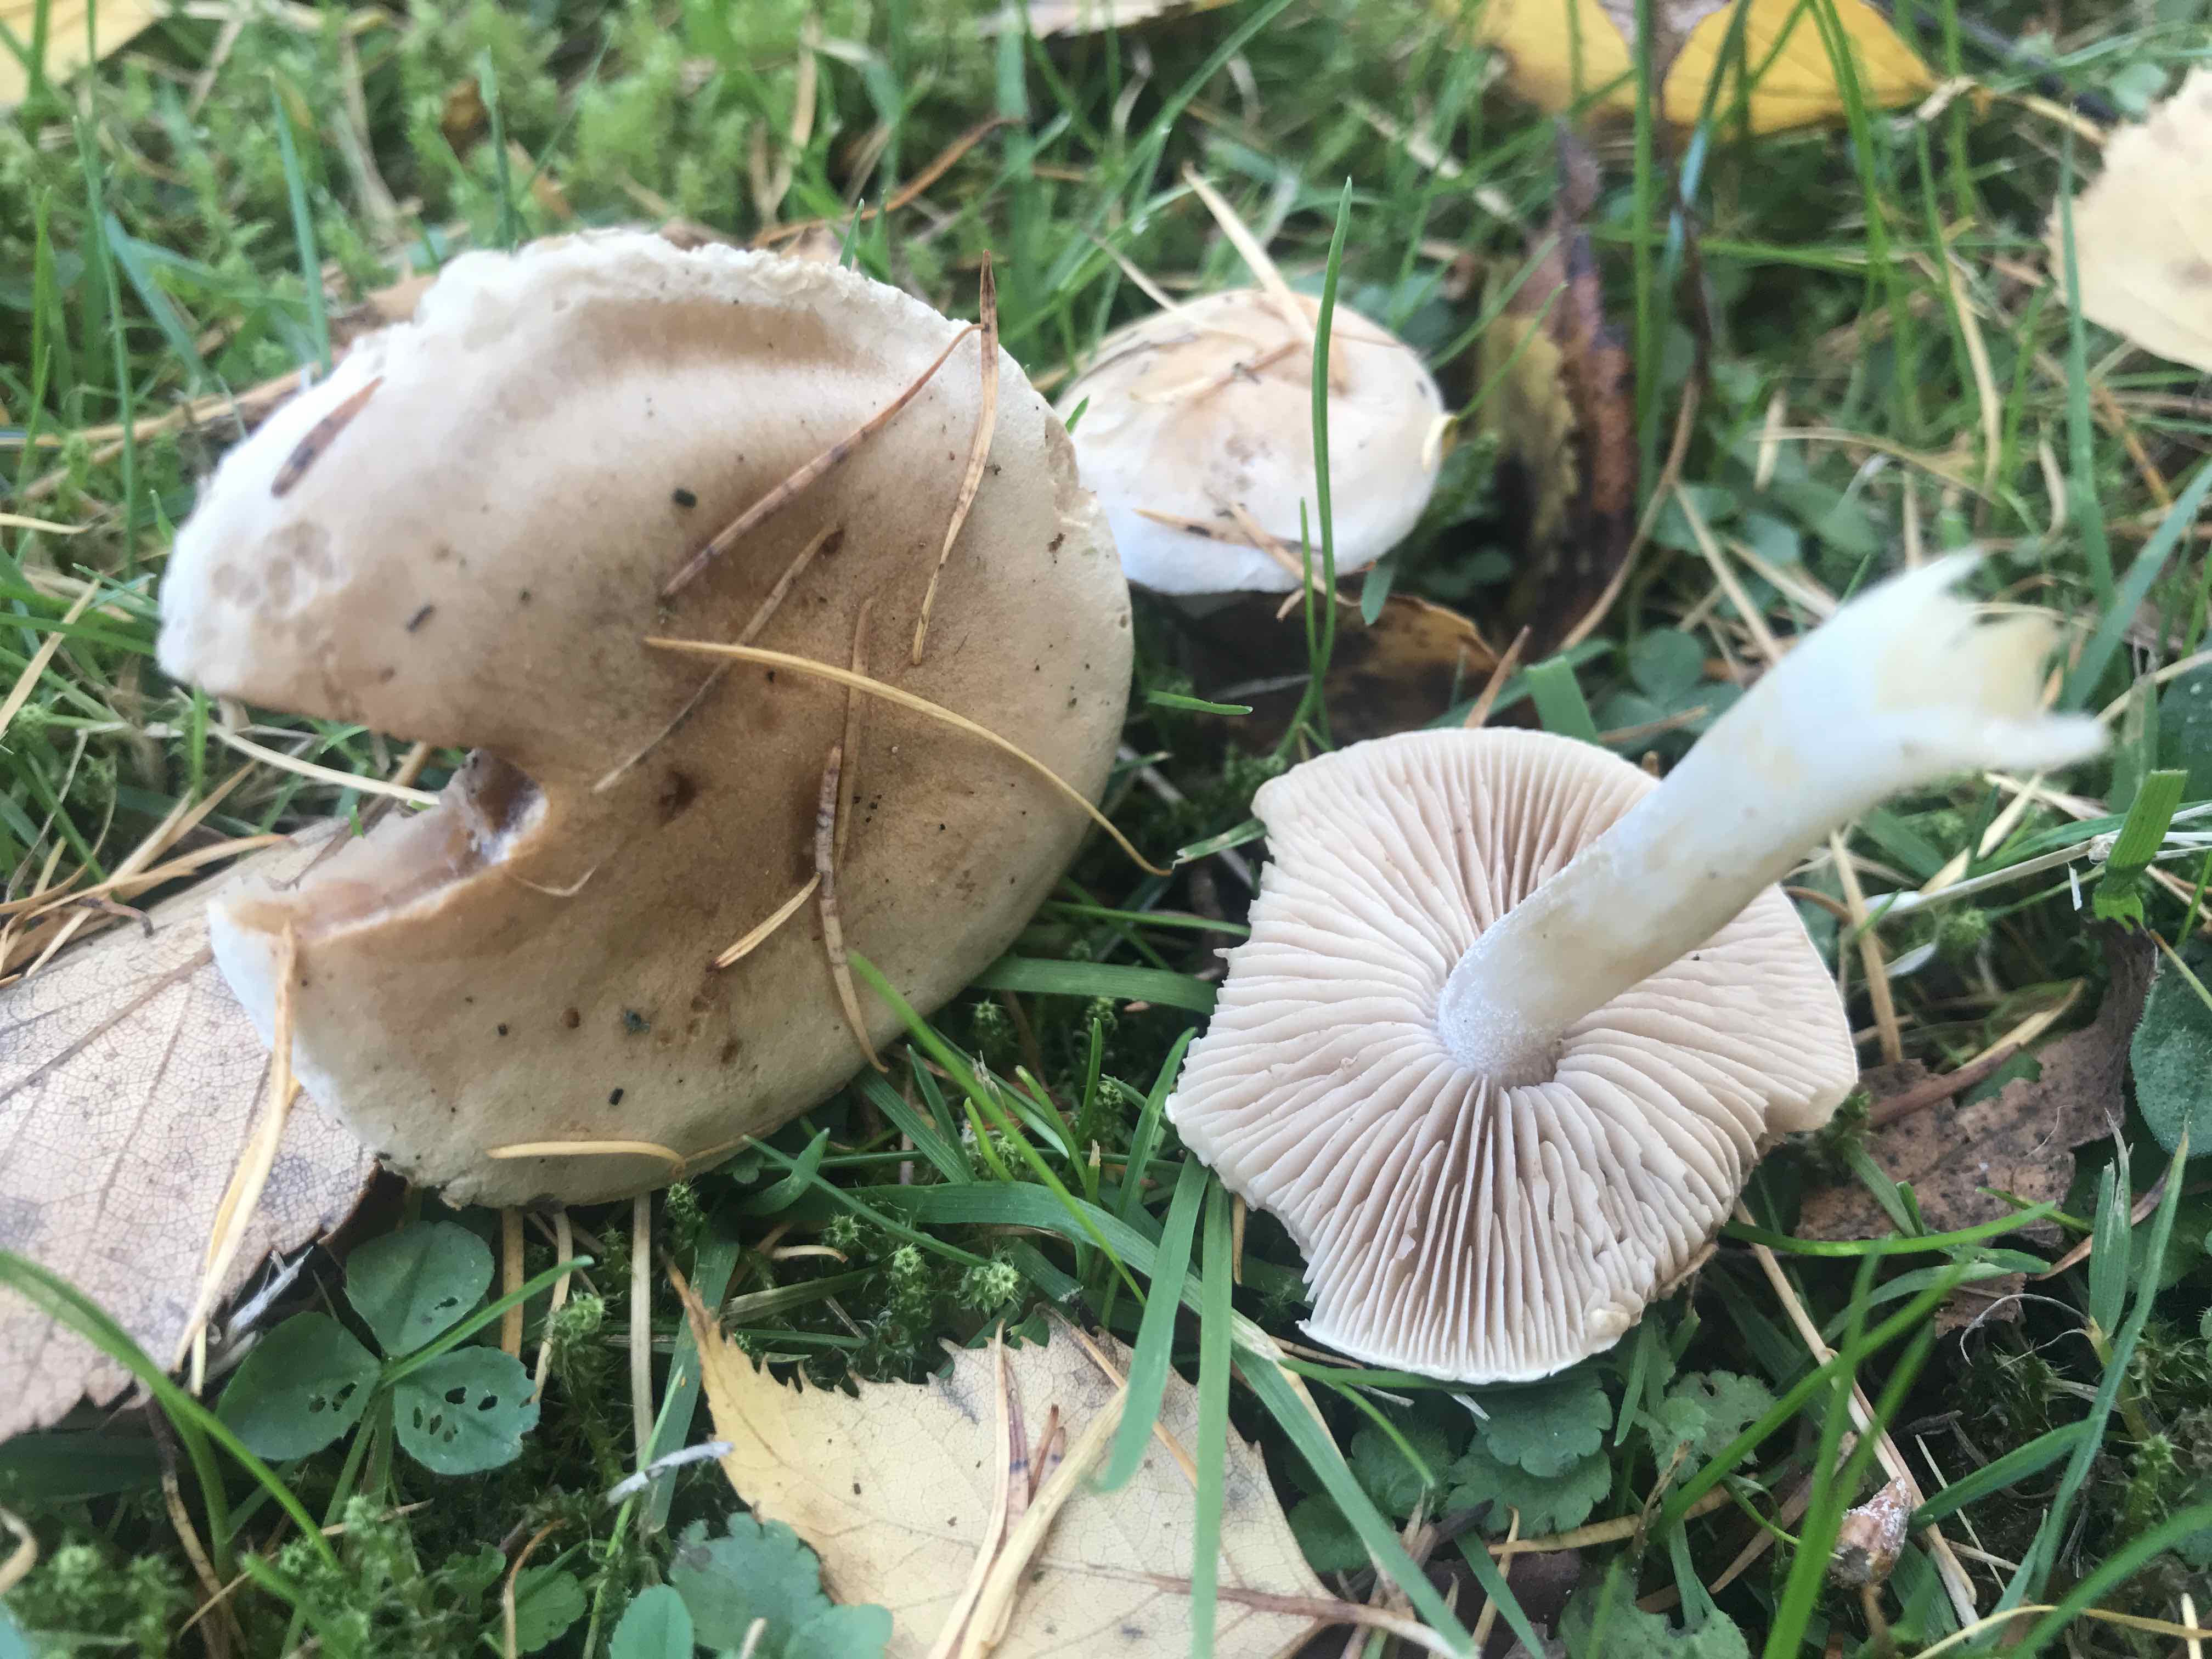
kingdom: Fungi
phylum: Basidiomycota
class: Agaricomycetes
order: Agaricales
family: Hymenogastraceae
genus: Hebeloma
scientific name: Hebeloma
